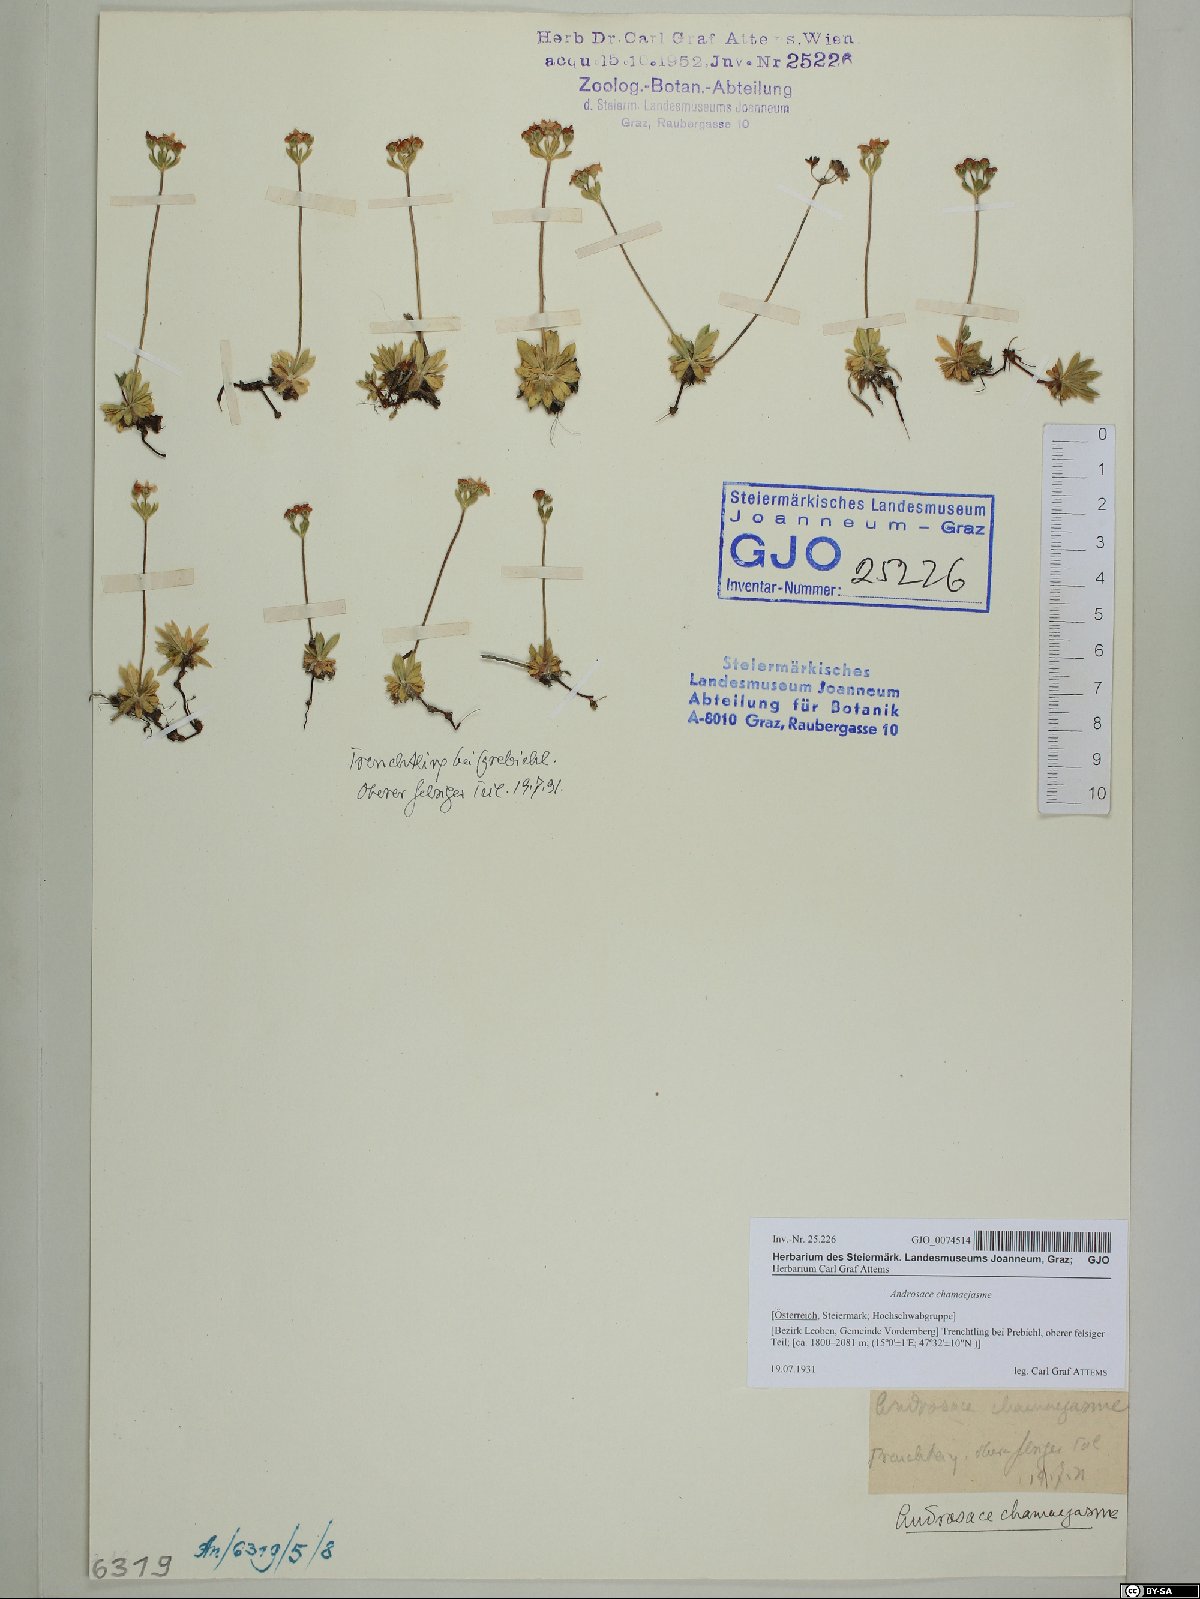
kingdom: Plantae
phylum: Tracheophyta
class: Magnoliopsida
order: Ericales
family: Primulaceae
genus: Androsace
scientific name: Androsace chamaejasme
